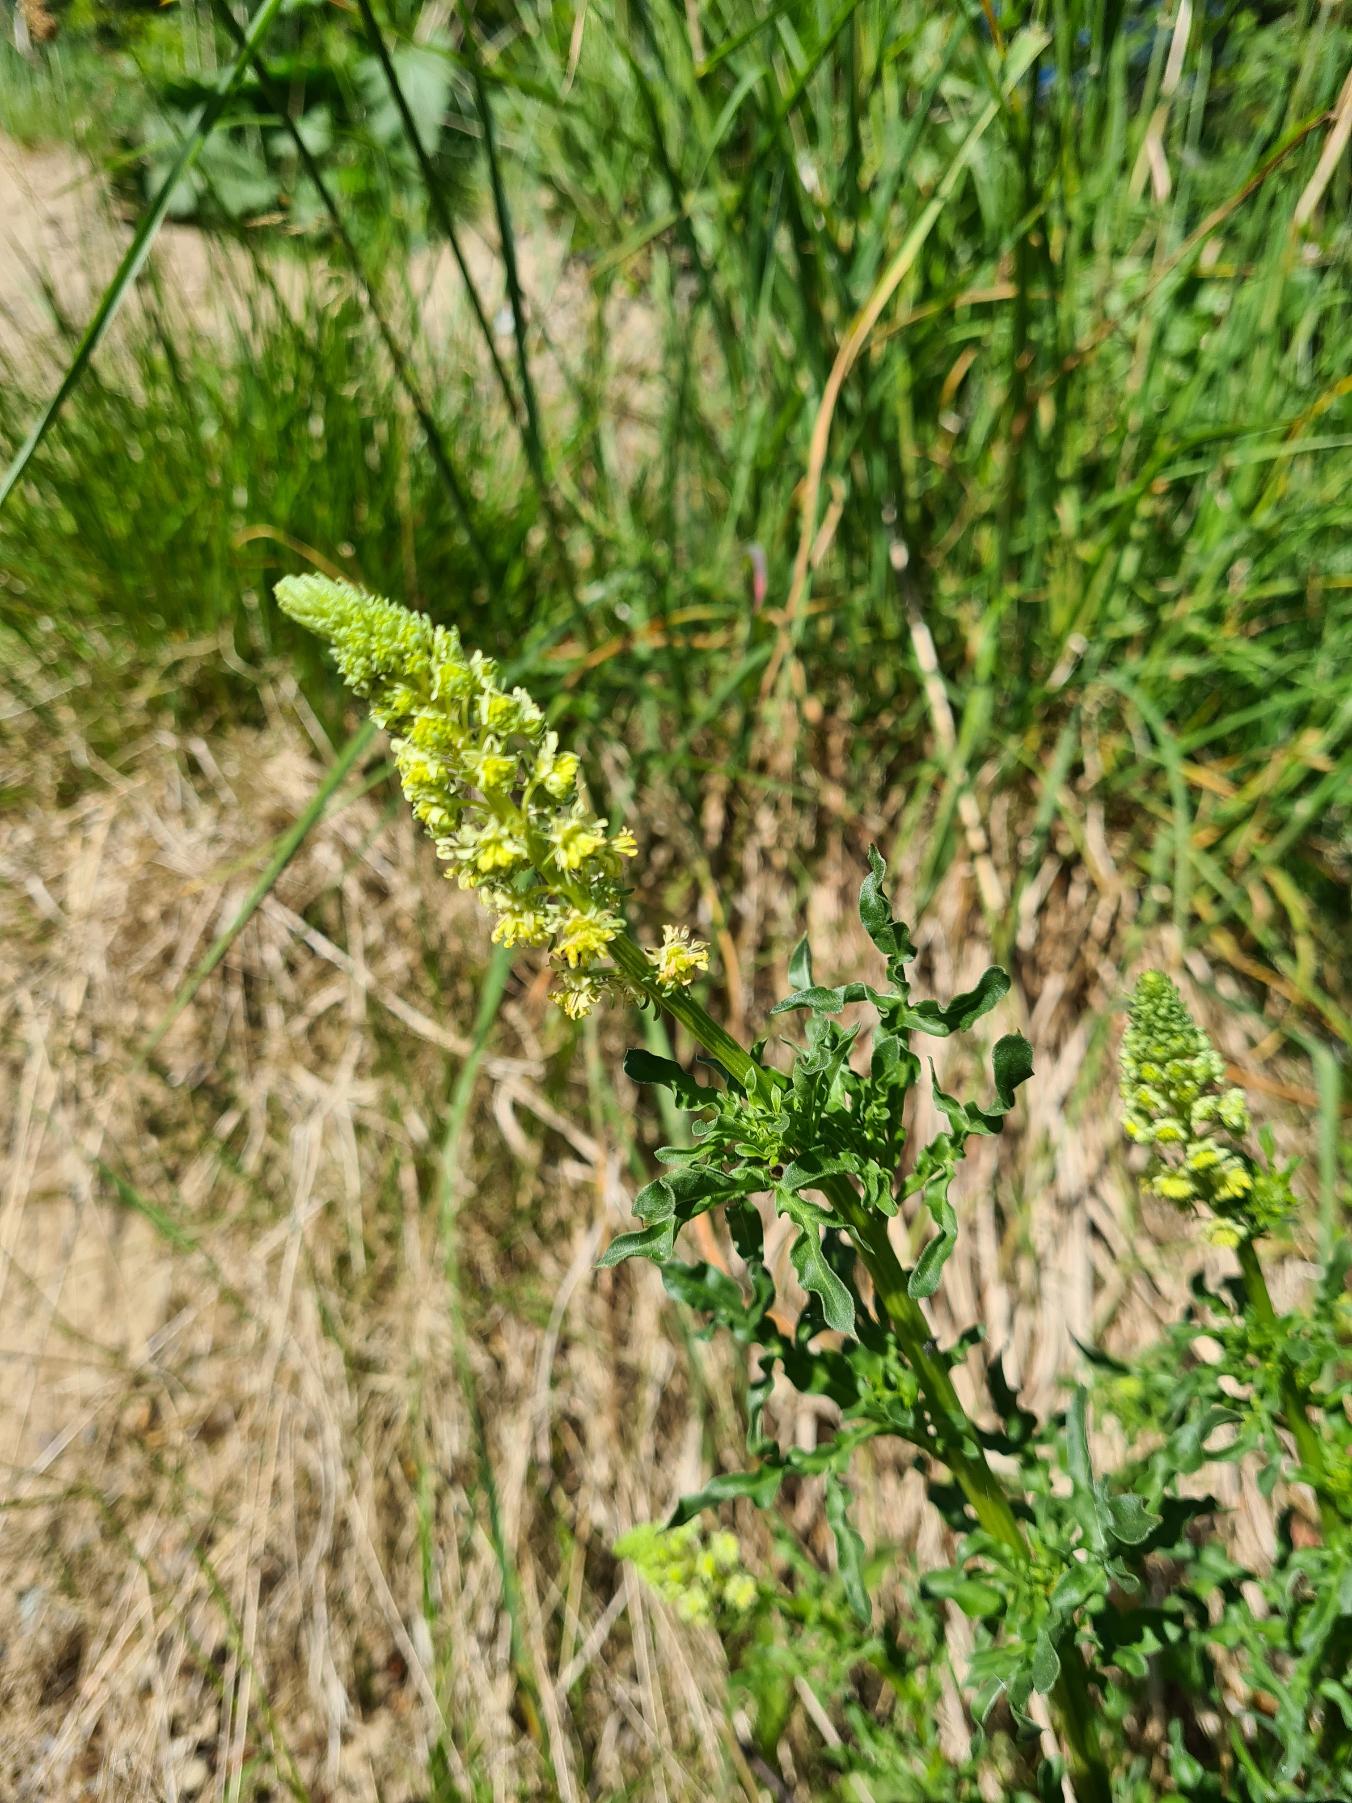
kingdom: Plantae
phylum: Tracheophyta
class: Magnoliopsida
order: Brassicales
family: Resedaceae
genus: Reseda
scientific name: Reseda lutea
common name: Gul reseda
